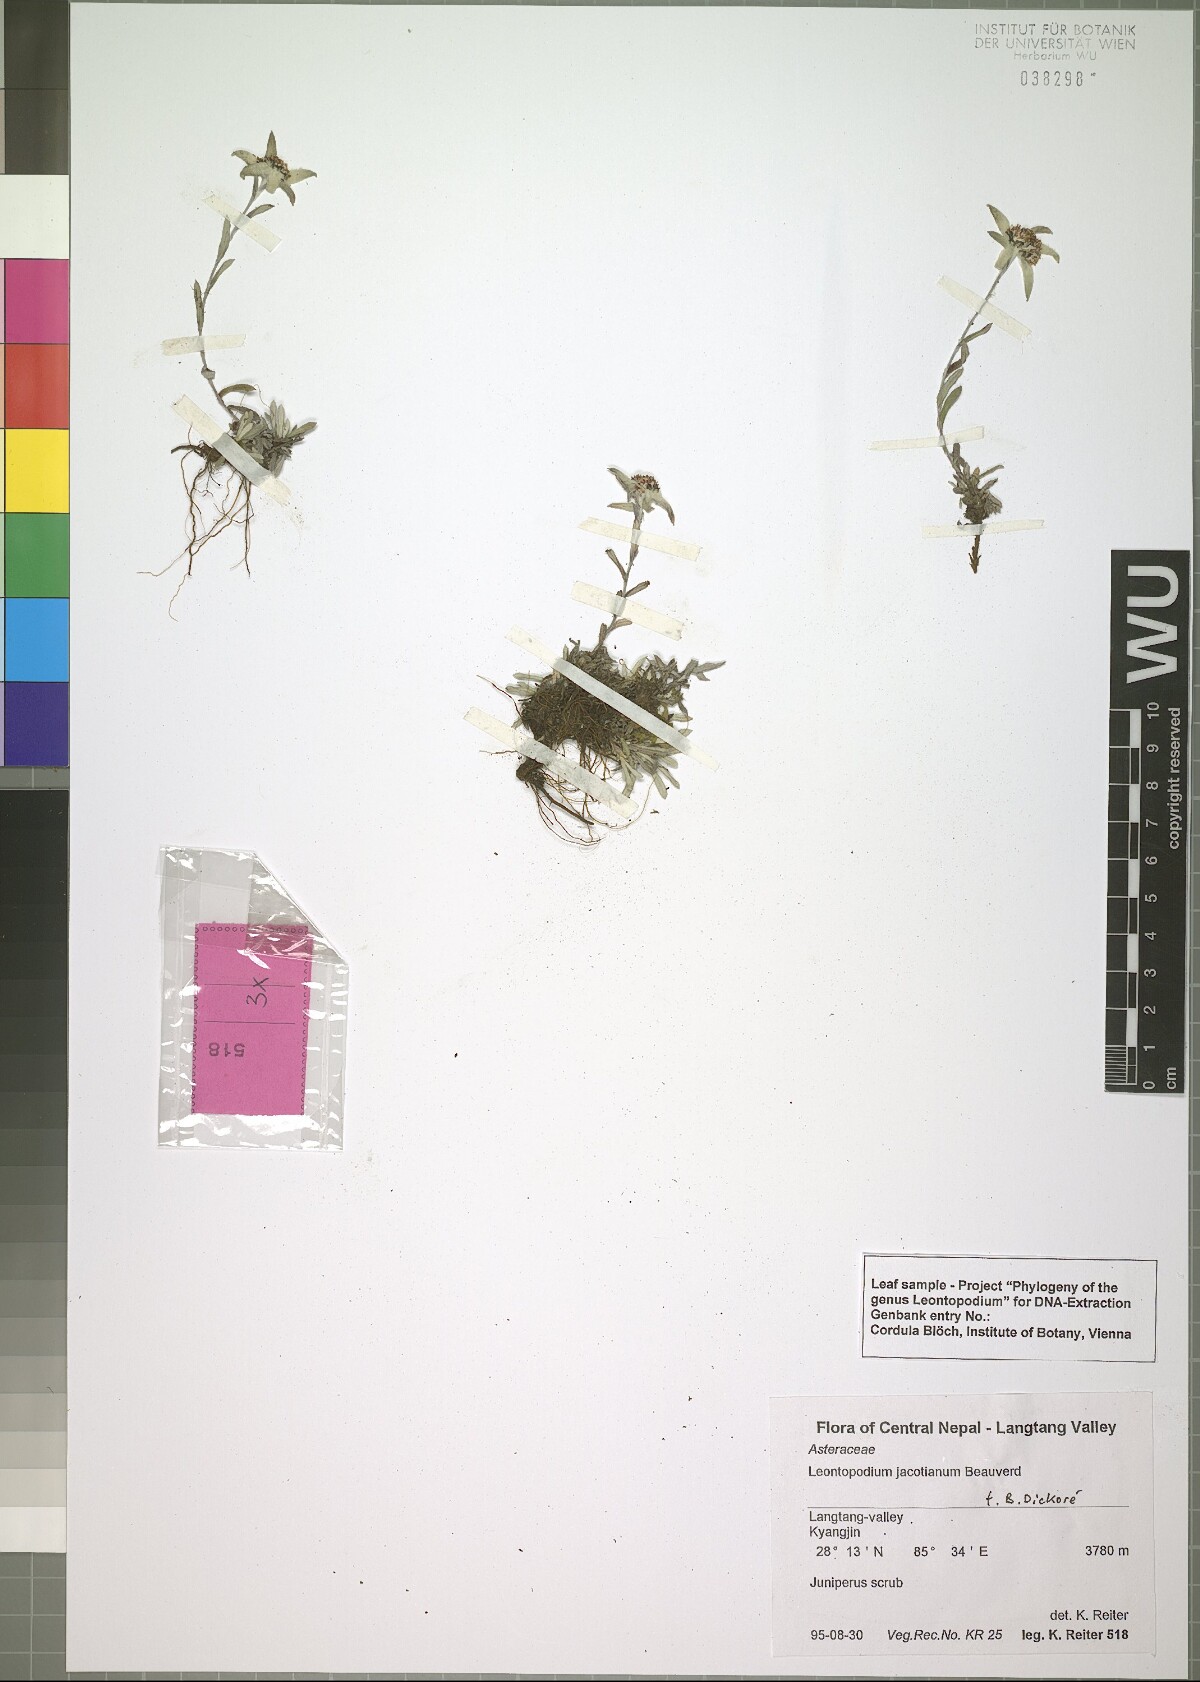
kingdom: Plantae
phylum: Tracheophyta
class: Magnoliopsida
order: Asterales
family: Asteraceae
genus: Leontopodium
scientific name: Leontopodium jacotianum
